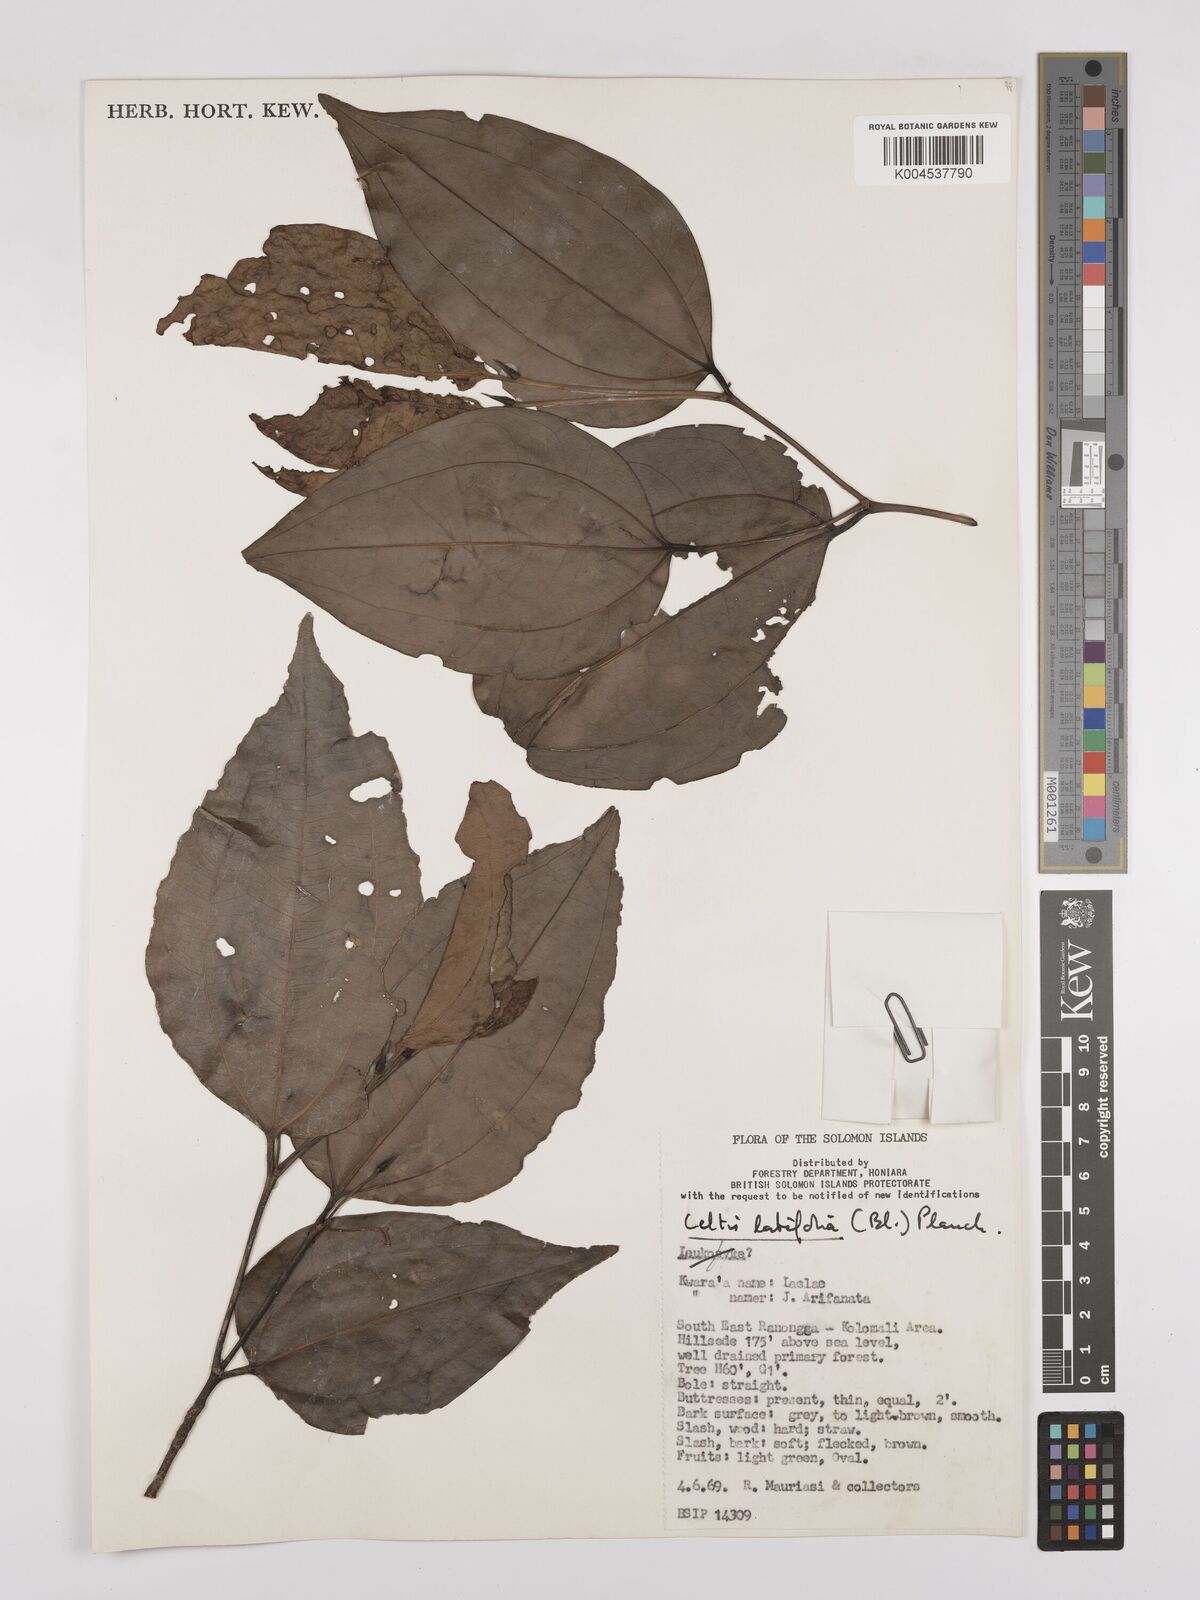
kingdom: Plantae
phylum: Tracheophyta
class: Magnoliopsida
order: Rosales
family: Cannabaceae
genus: Celtis
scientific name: Celtis latifolia
